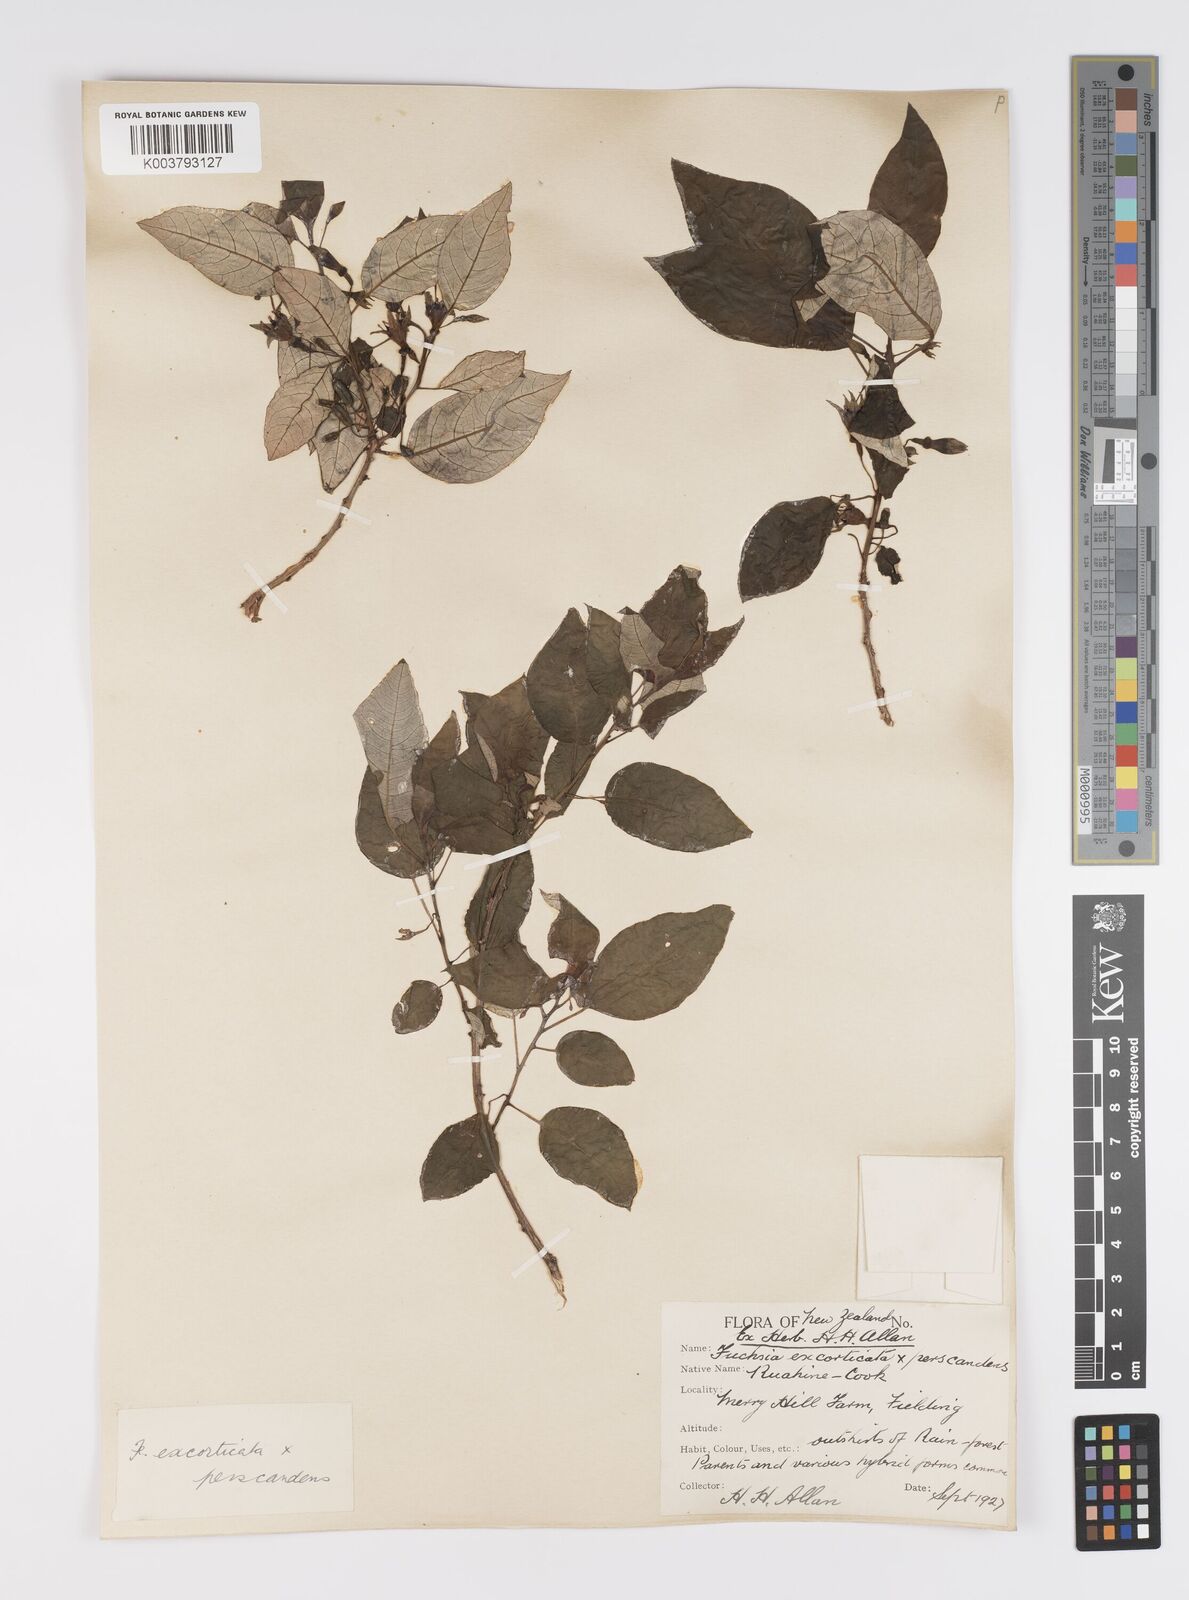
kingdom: Plantae
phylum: Tracheophyta
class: Magnoliopsida
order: Myrtales
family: Onagraceae
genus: Fuchsia
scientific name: Fuchsia excorticata
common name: Tree fuchsia
